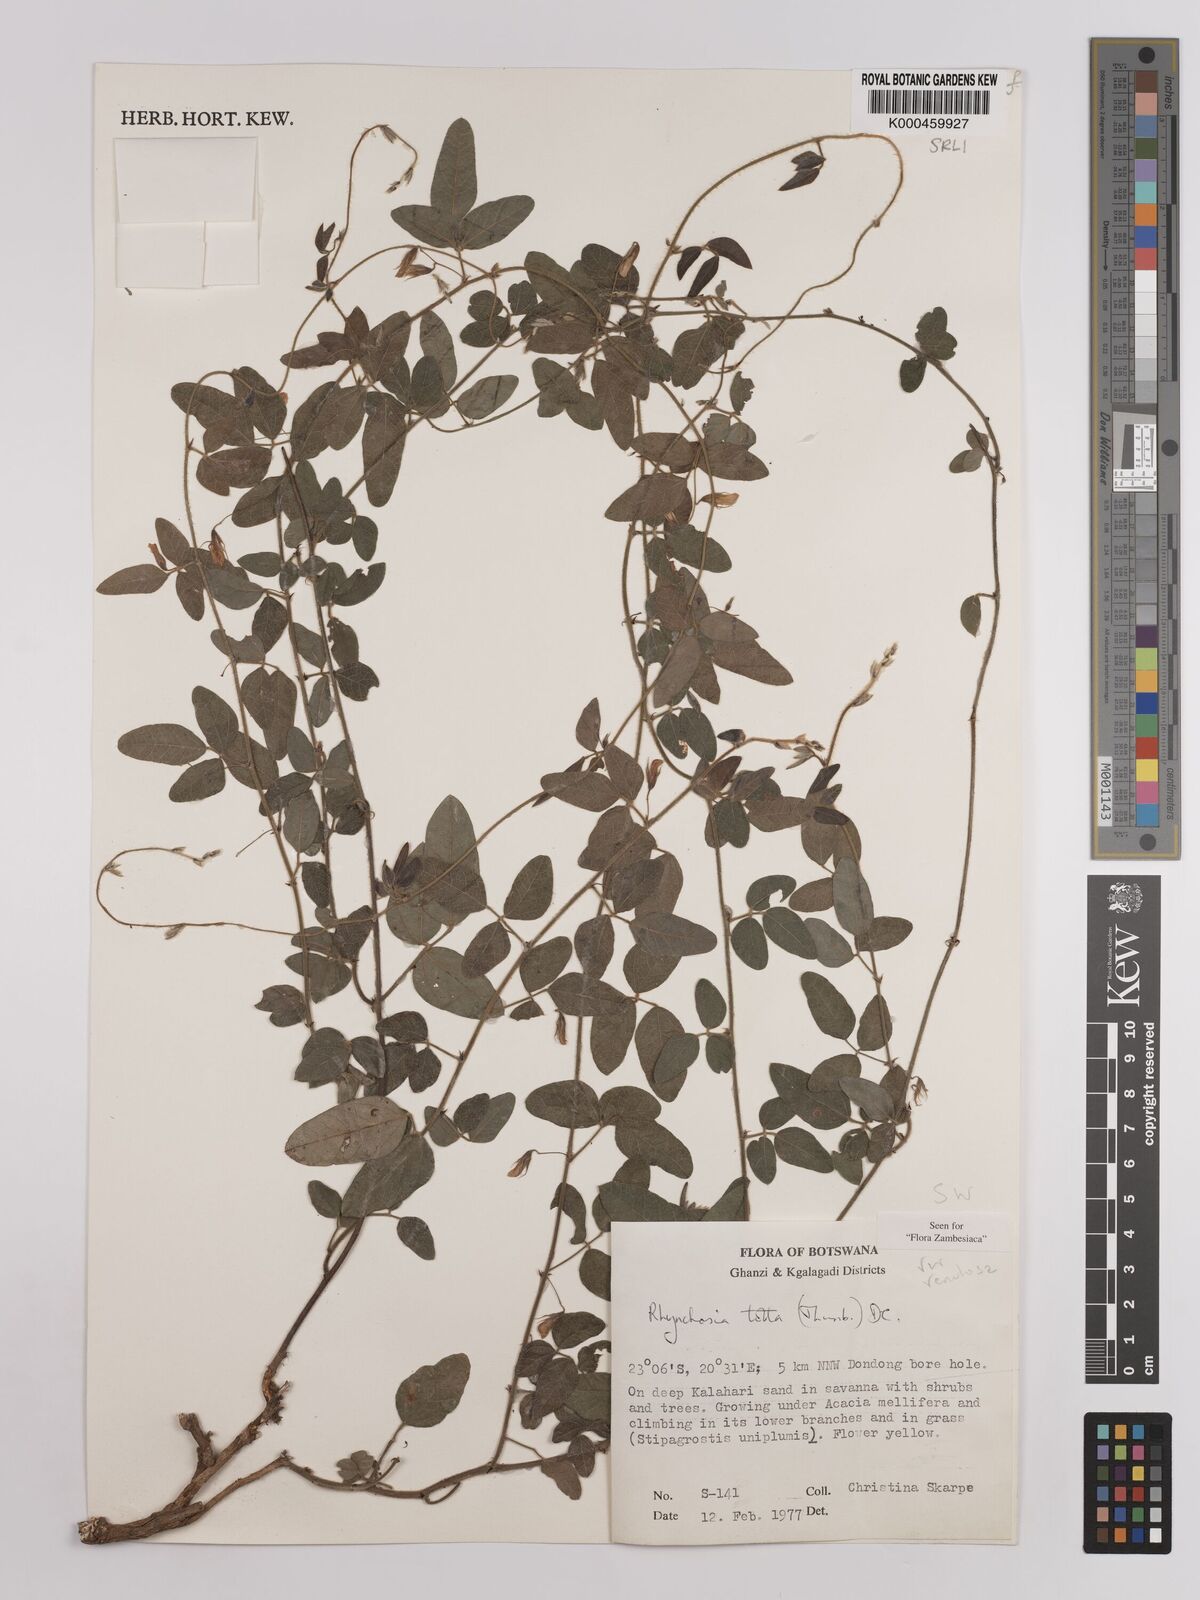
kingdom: Plantae
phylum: Tracheophyta
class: Magnoliopsida
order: Fabales
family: Fabaceae
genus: Rhynchosia
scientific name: Rhynchosia totta
